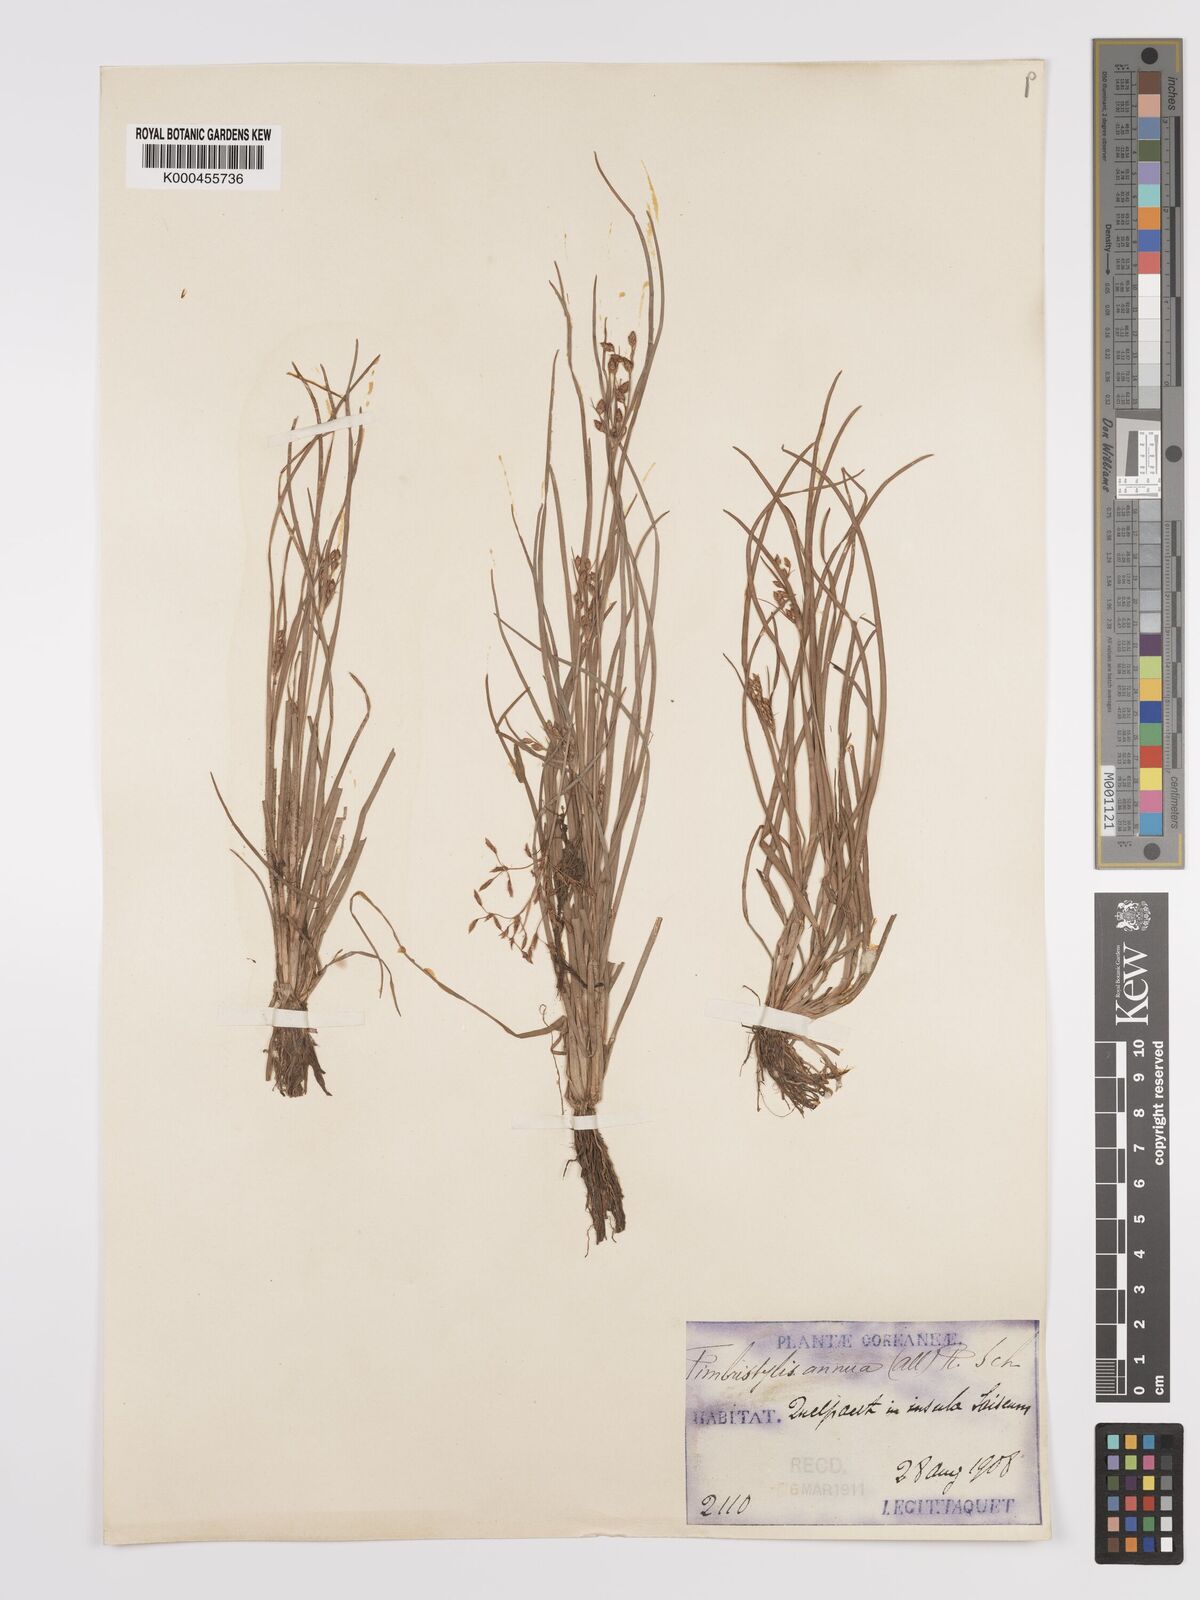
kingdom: Plantae
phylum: Tracheophyta
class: Liliopsida
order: Poales
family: Cyperaceae
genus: Fimbristylis
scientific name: Fimbristylis dichotoma
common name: Forked fimbry
